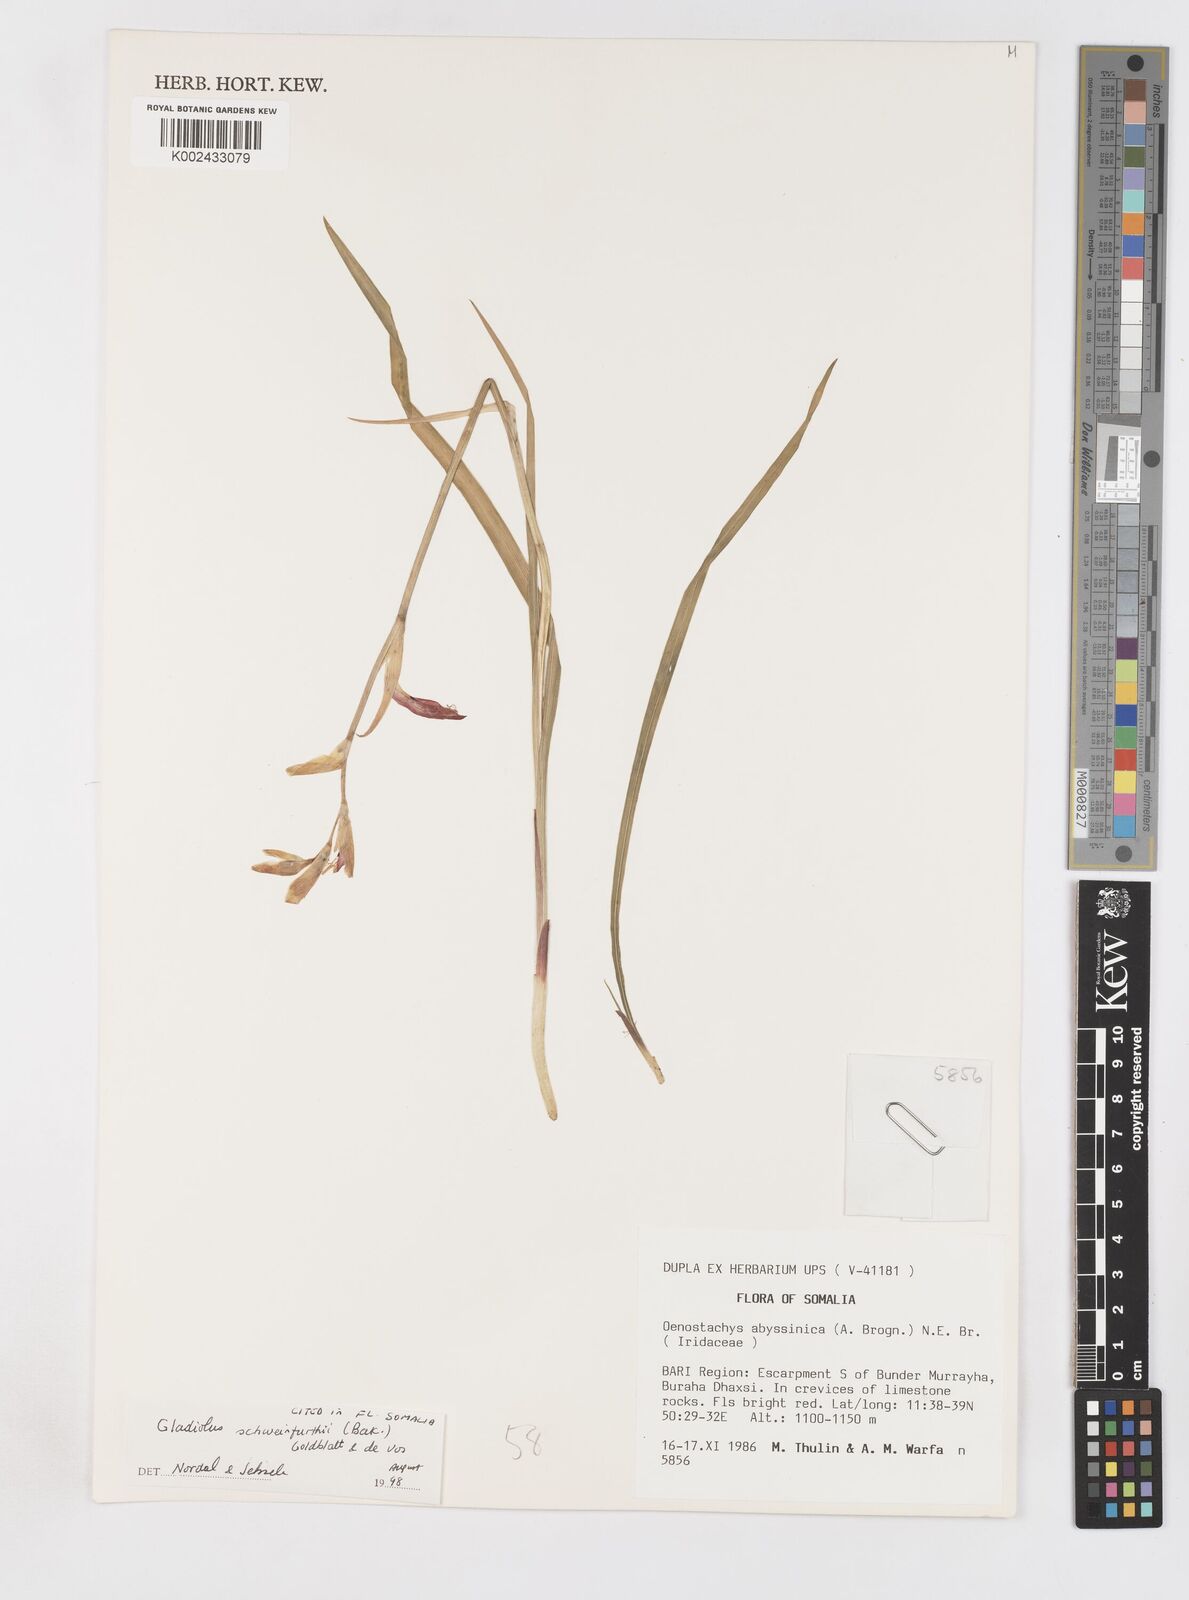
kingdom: Plantae
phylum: Tracheophyta
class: Liliopsida
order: Asparagales
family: Iridaceae
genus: Gladiolus
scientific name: Gladiolus schweinfurthii
